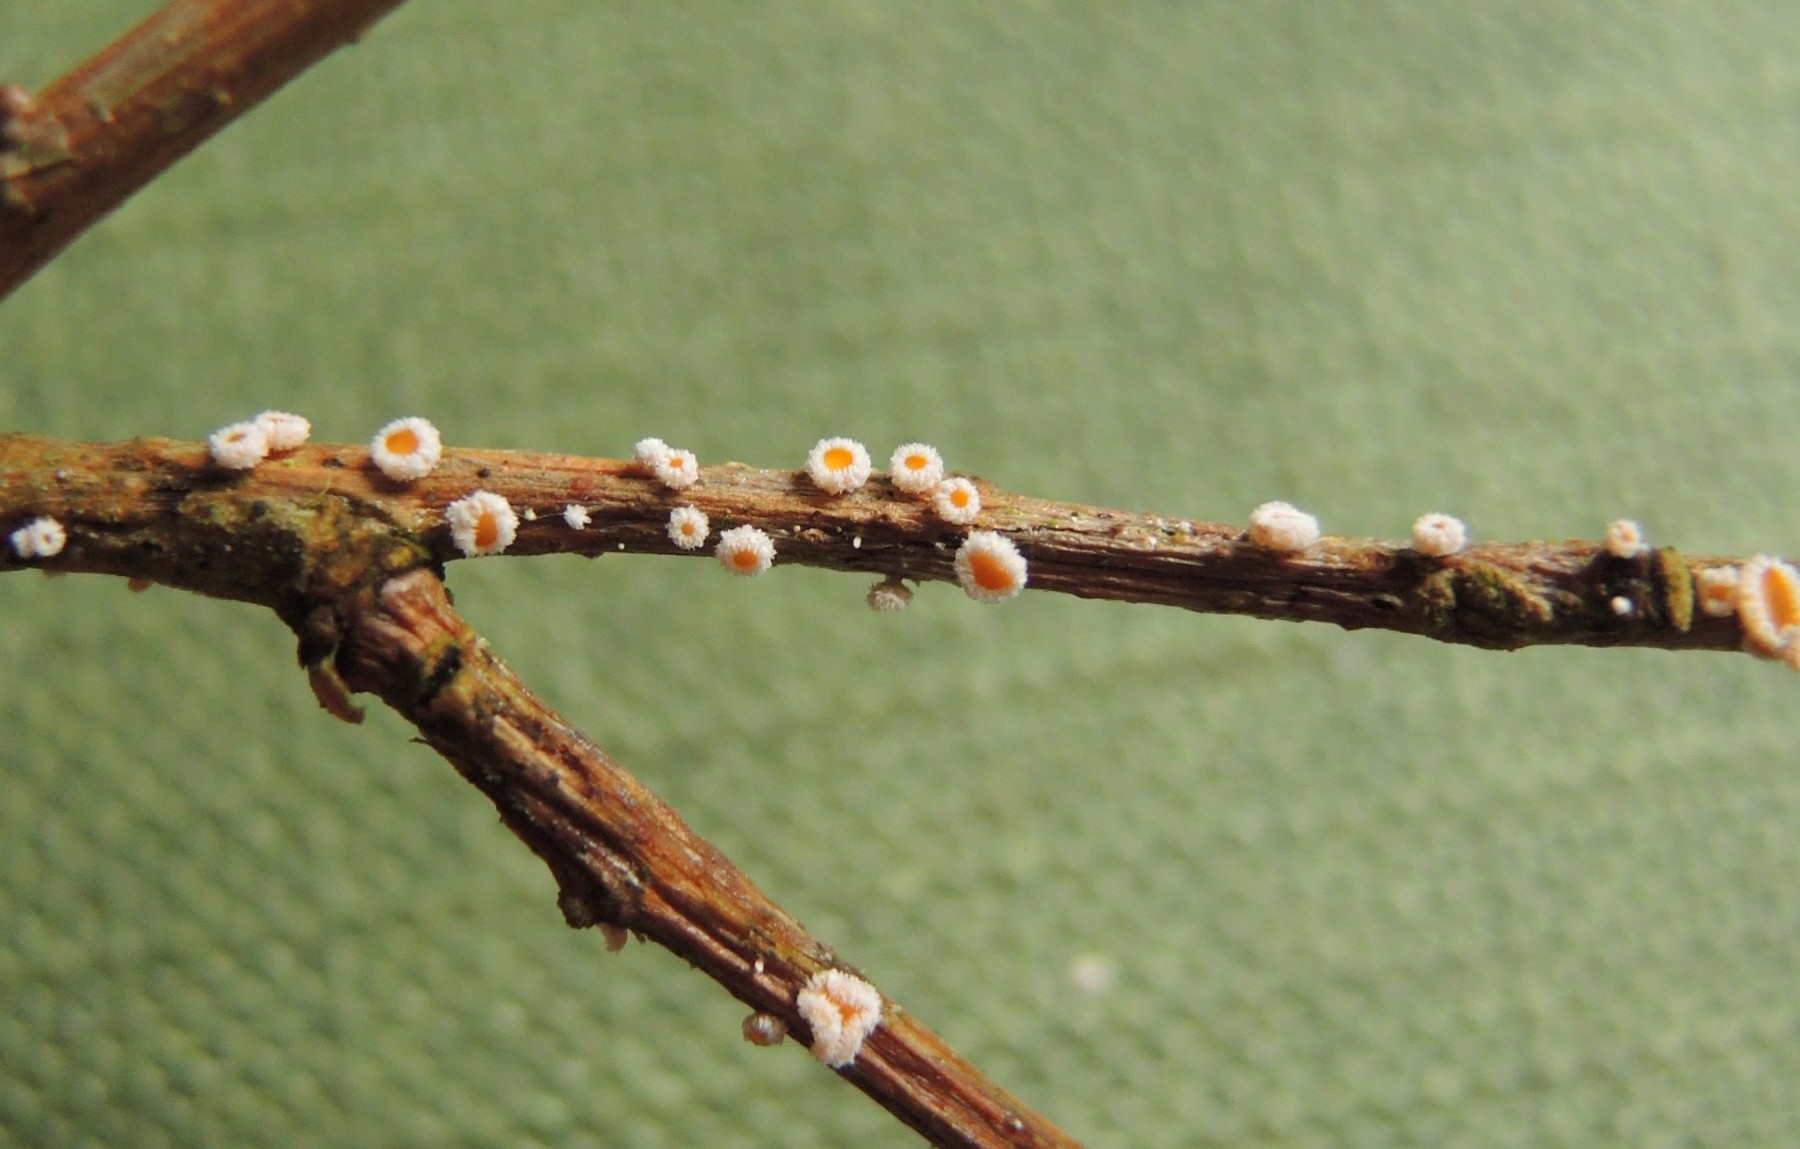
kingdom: Fungi
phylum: Ascomycota
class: Leotiomycetes
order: Helotiales
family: Lachnaceae
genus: Capitotricha
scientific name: Capitotricha bicolor
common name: prægtig frynseskive
